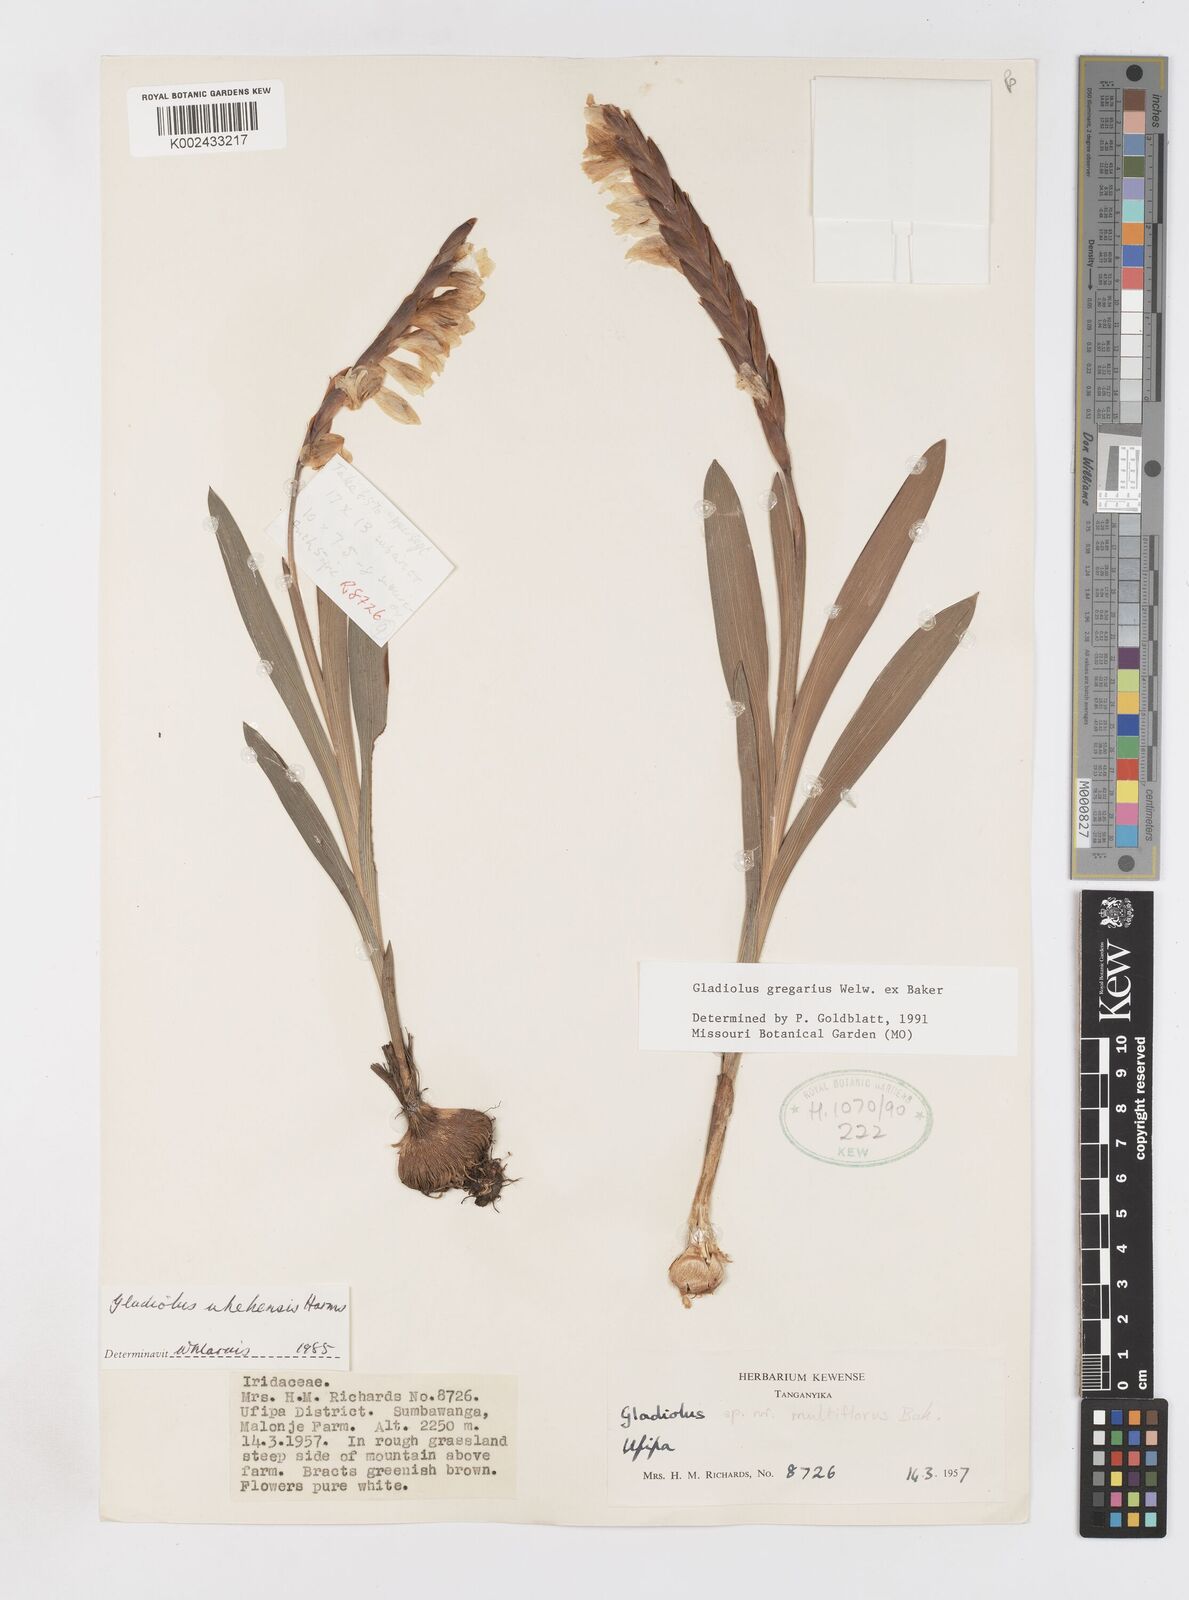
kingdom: Plantae
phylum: Tracheophyta
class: Liliopsida
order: Asparagales
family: Iridaceae
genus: Gladiolus
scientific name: Gladiolus gregarius
